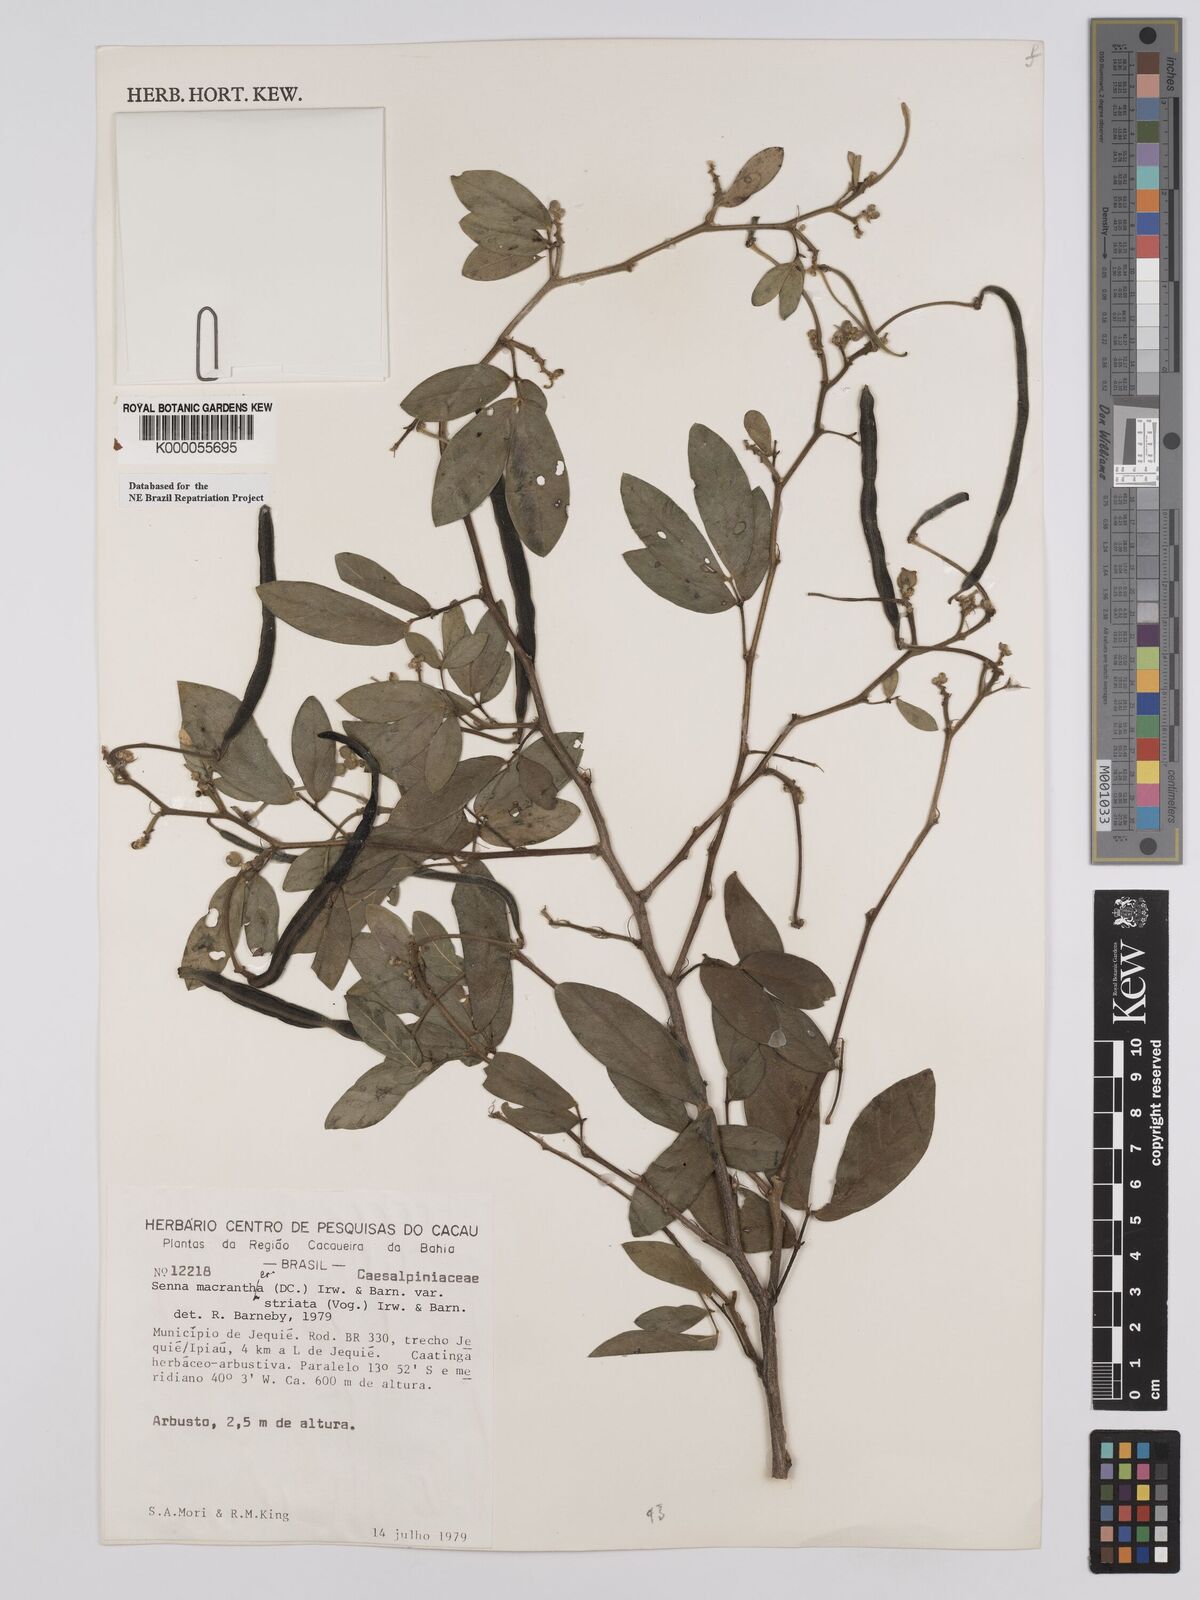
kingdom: Plantae
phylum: Tracheophyta
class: Magnoliopsida
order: Fabales
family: Fabaceae
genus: Senna
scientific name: Senna macranthera
